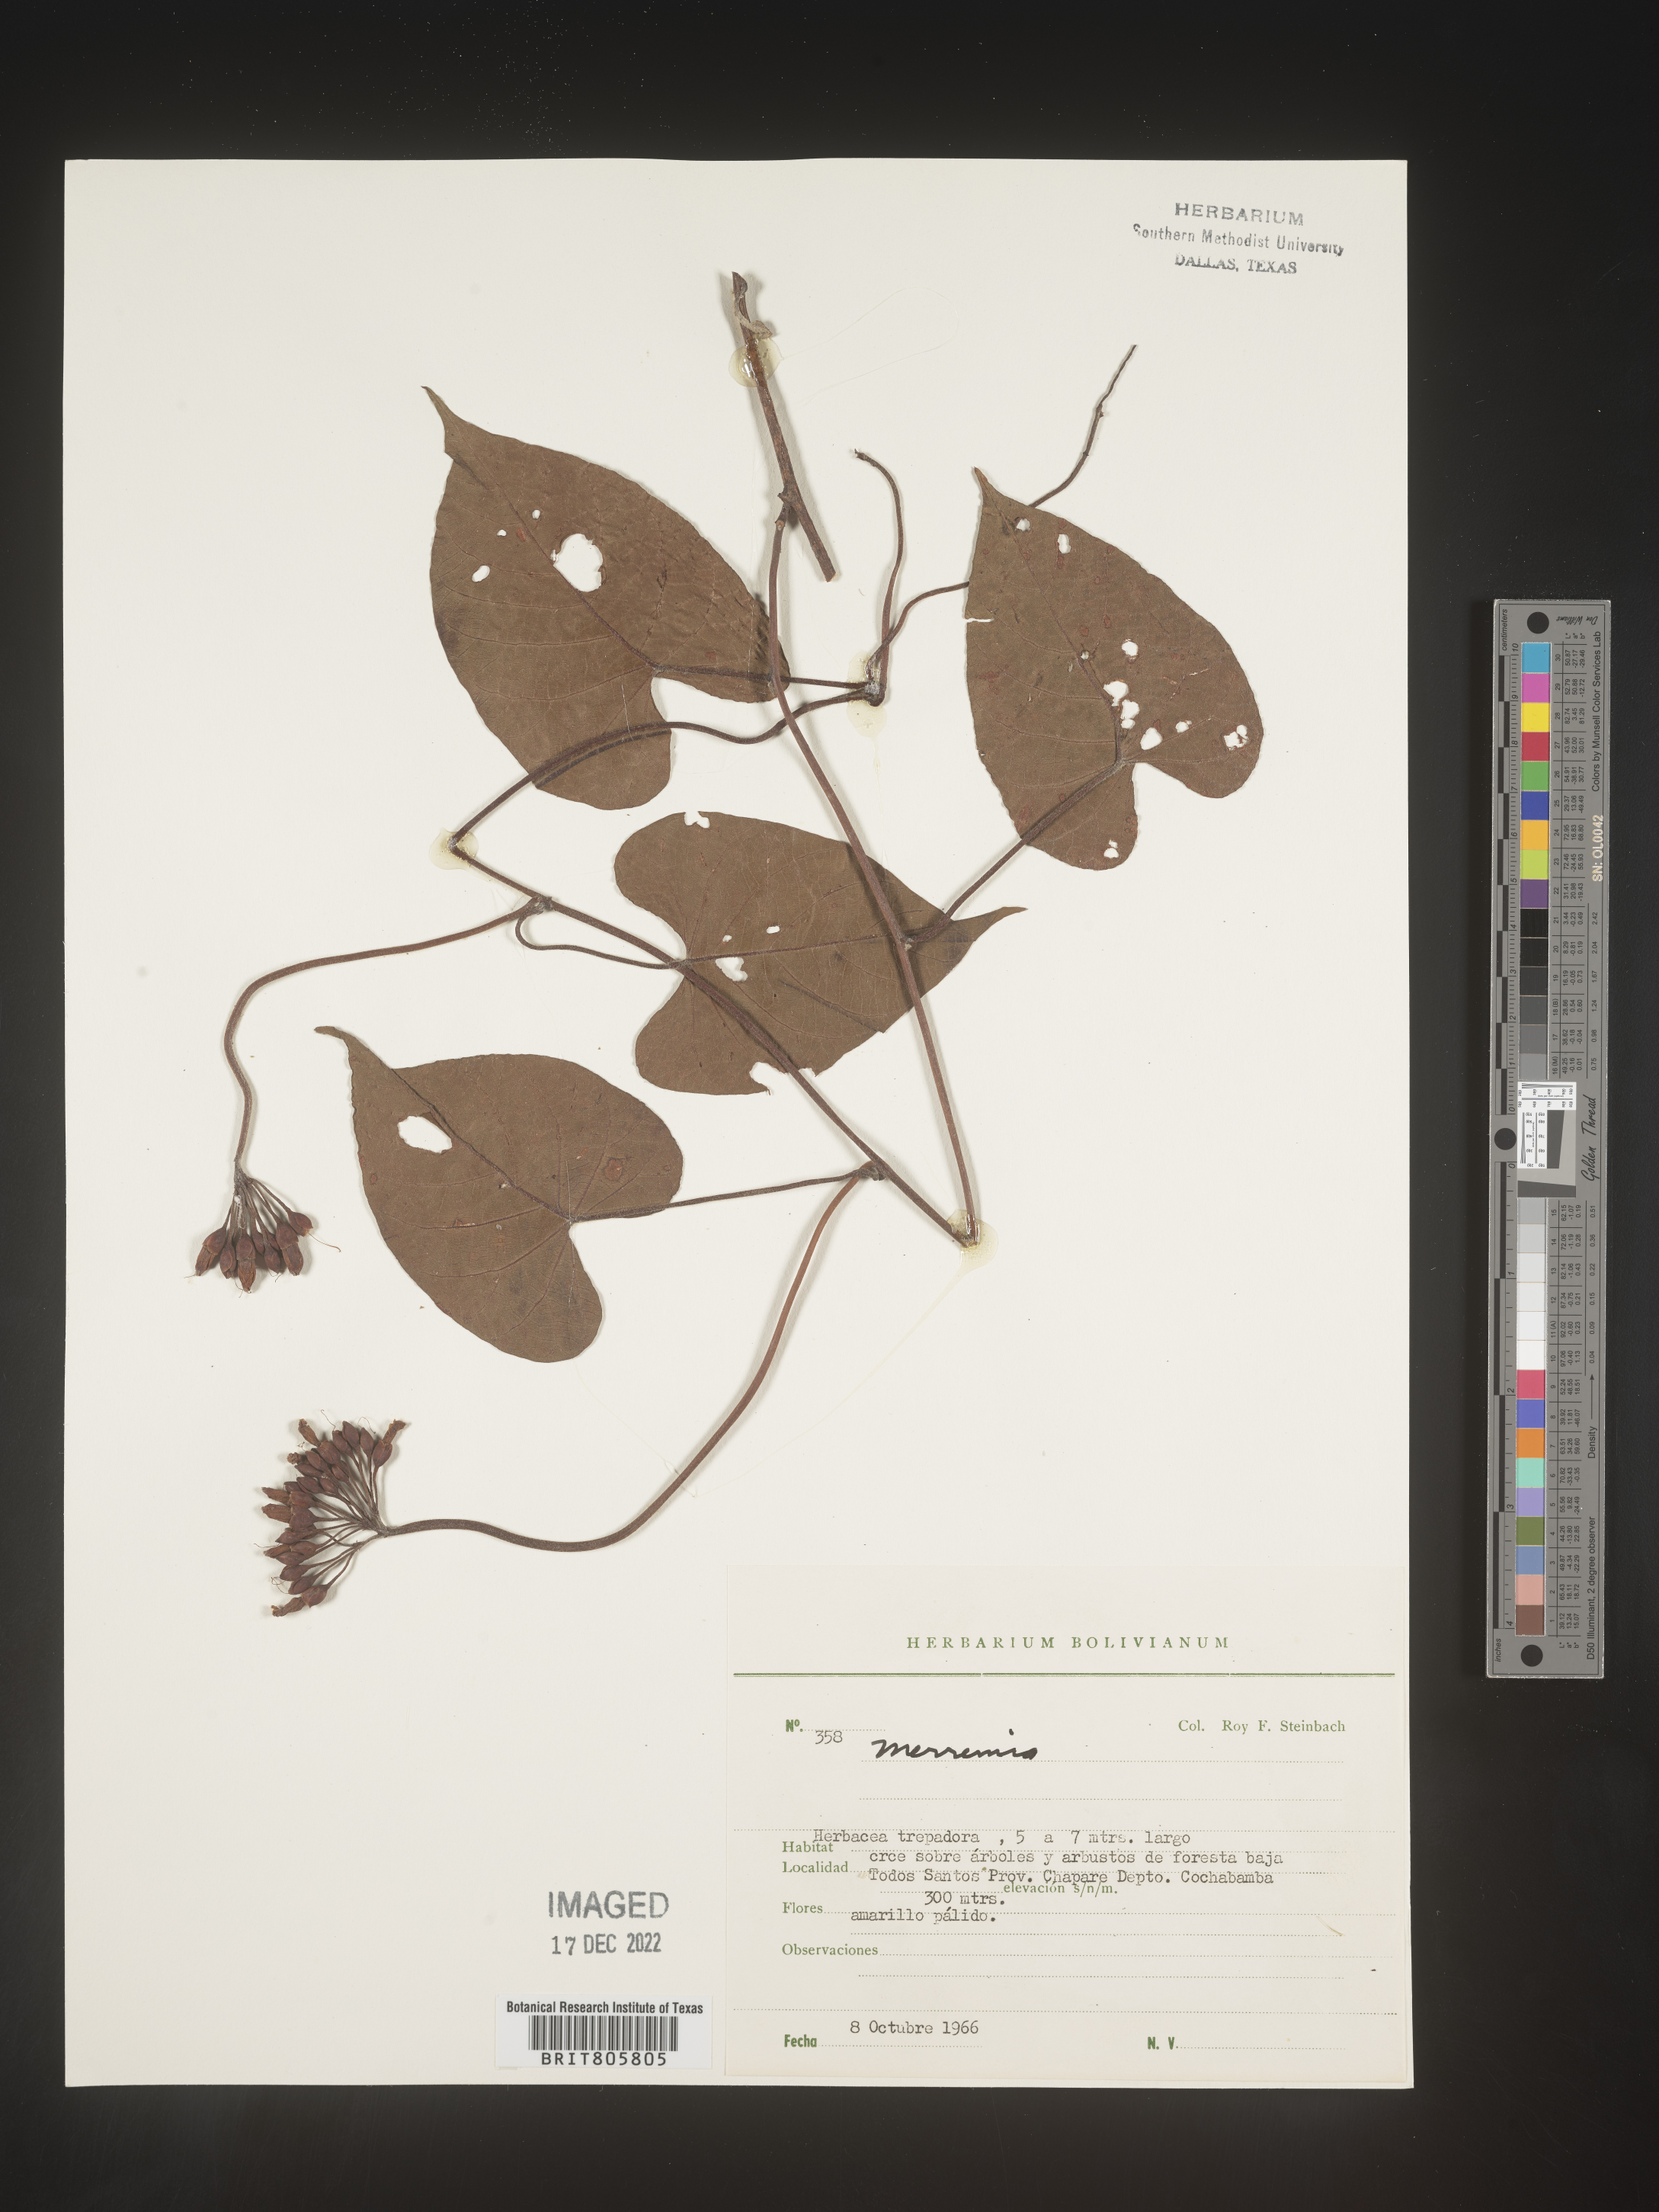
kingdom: Plantae
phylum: Tracheophyta
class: Magnoliopsida
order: Solanales
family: Convolvulaceae
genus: Merremia
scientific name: Merremia
